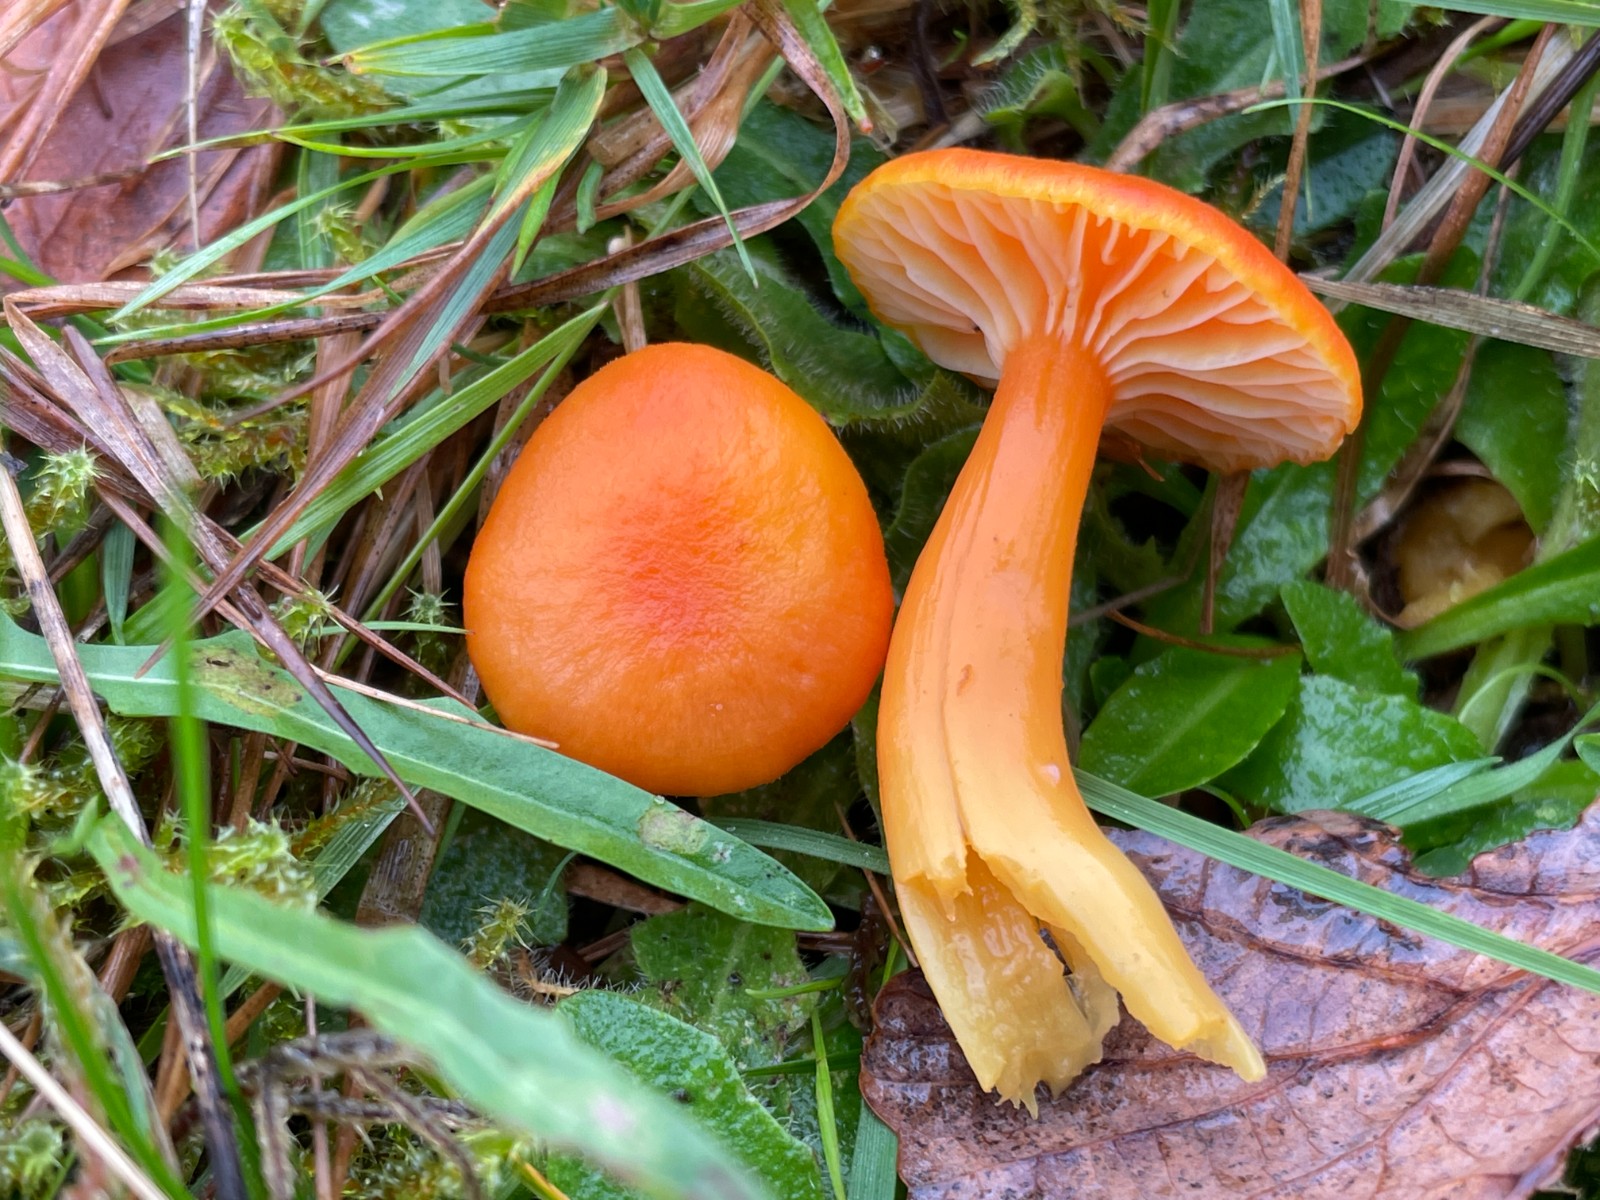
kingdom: Fungi
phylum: Basidiomycota
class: Agaricomycetes
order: Agaricales
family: Hygrophoraceae
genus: Hygrocybe
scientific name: Hygrocybe reidii
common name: honning-vokshat
